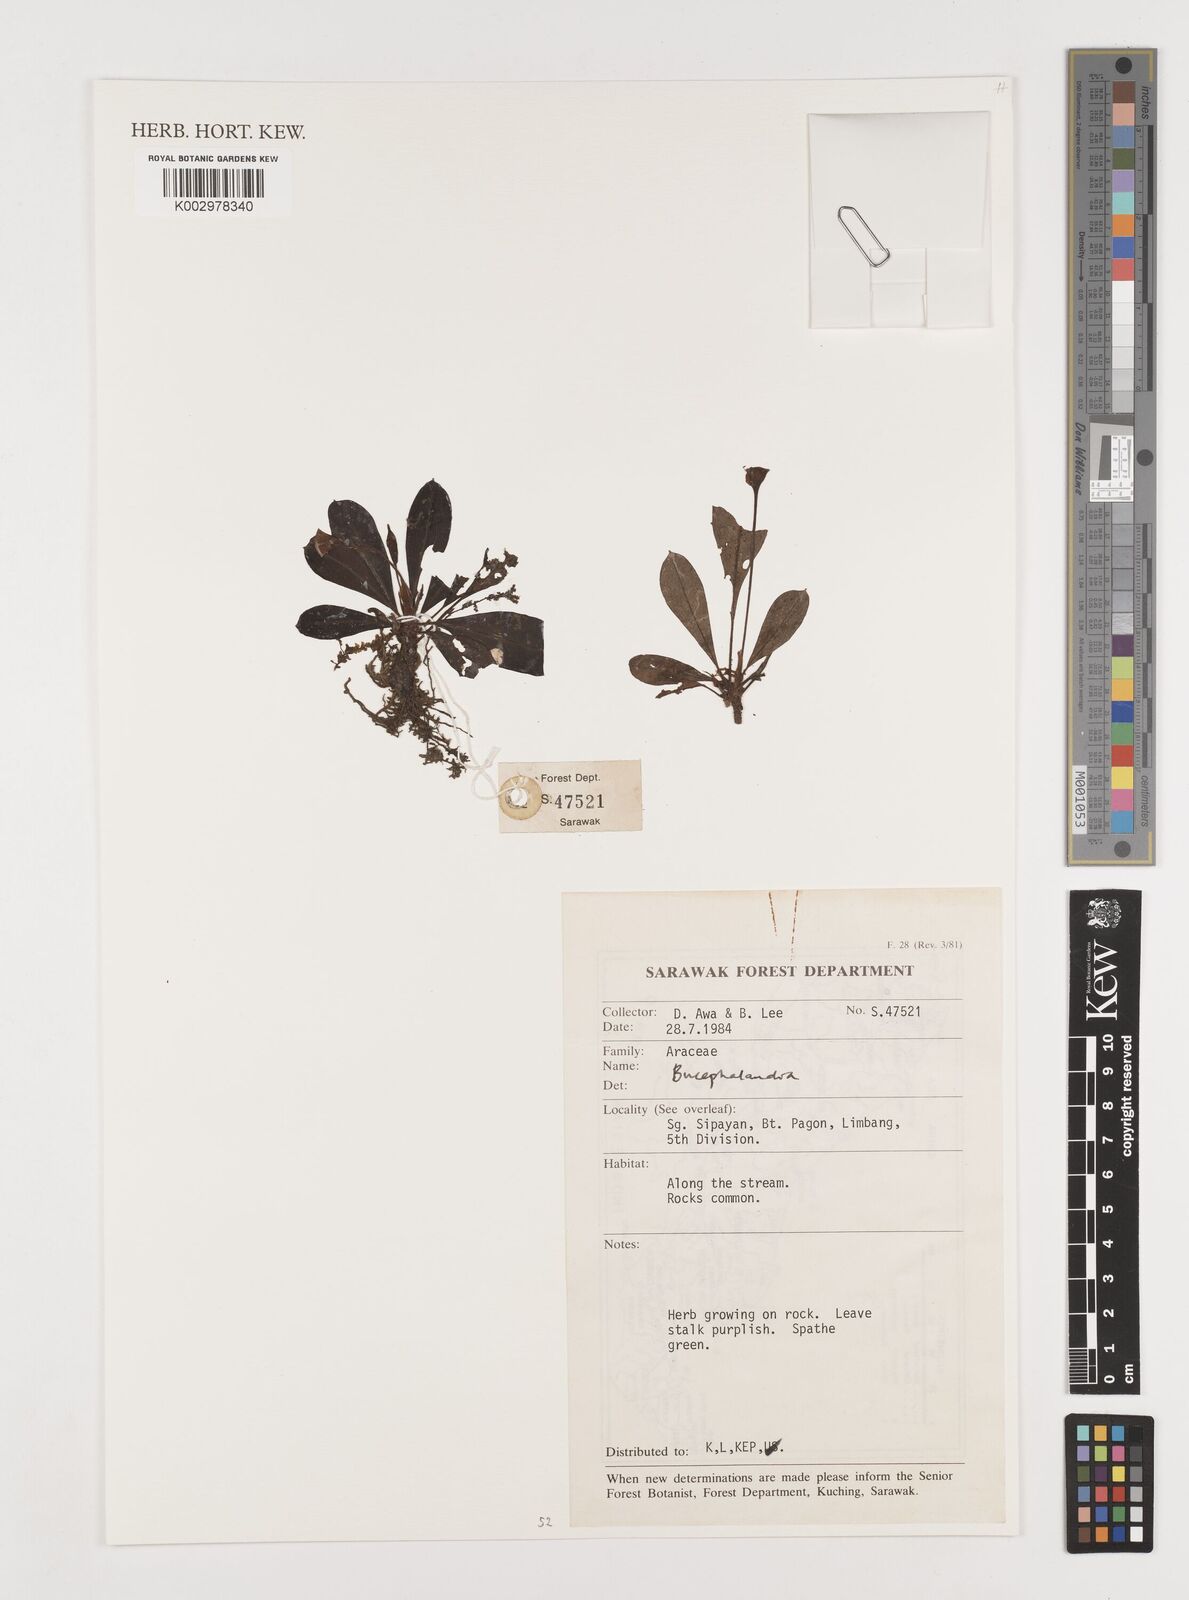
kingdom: Plantae
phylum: Tracheophyta
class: Liliopsida
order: Alismatales
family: Araceae
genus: Bucephalandra
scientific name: Bucephalandra motleyana
